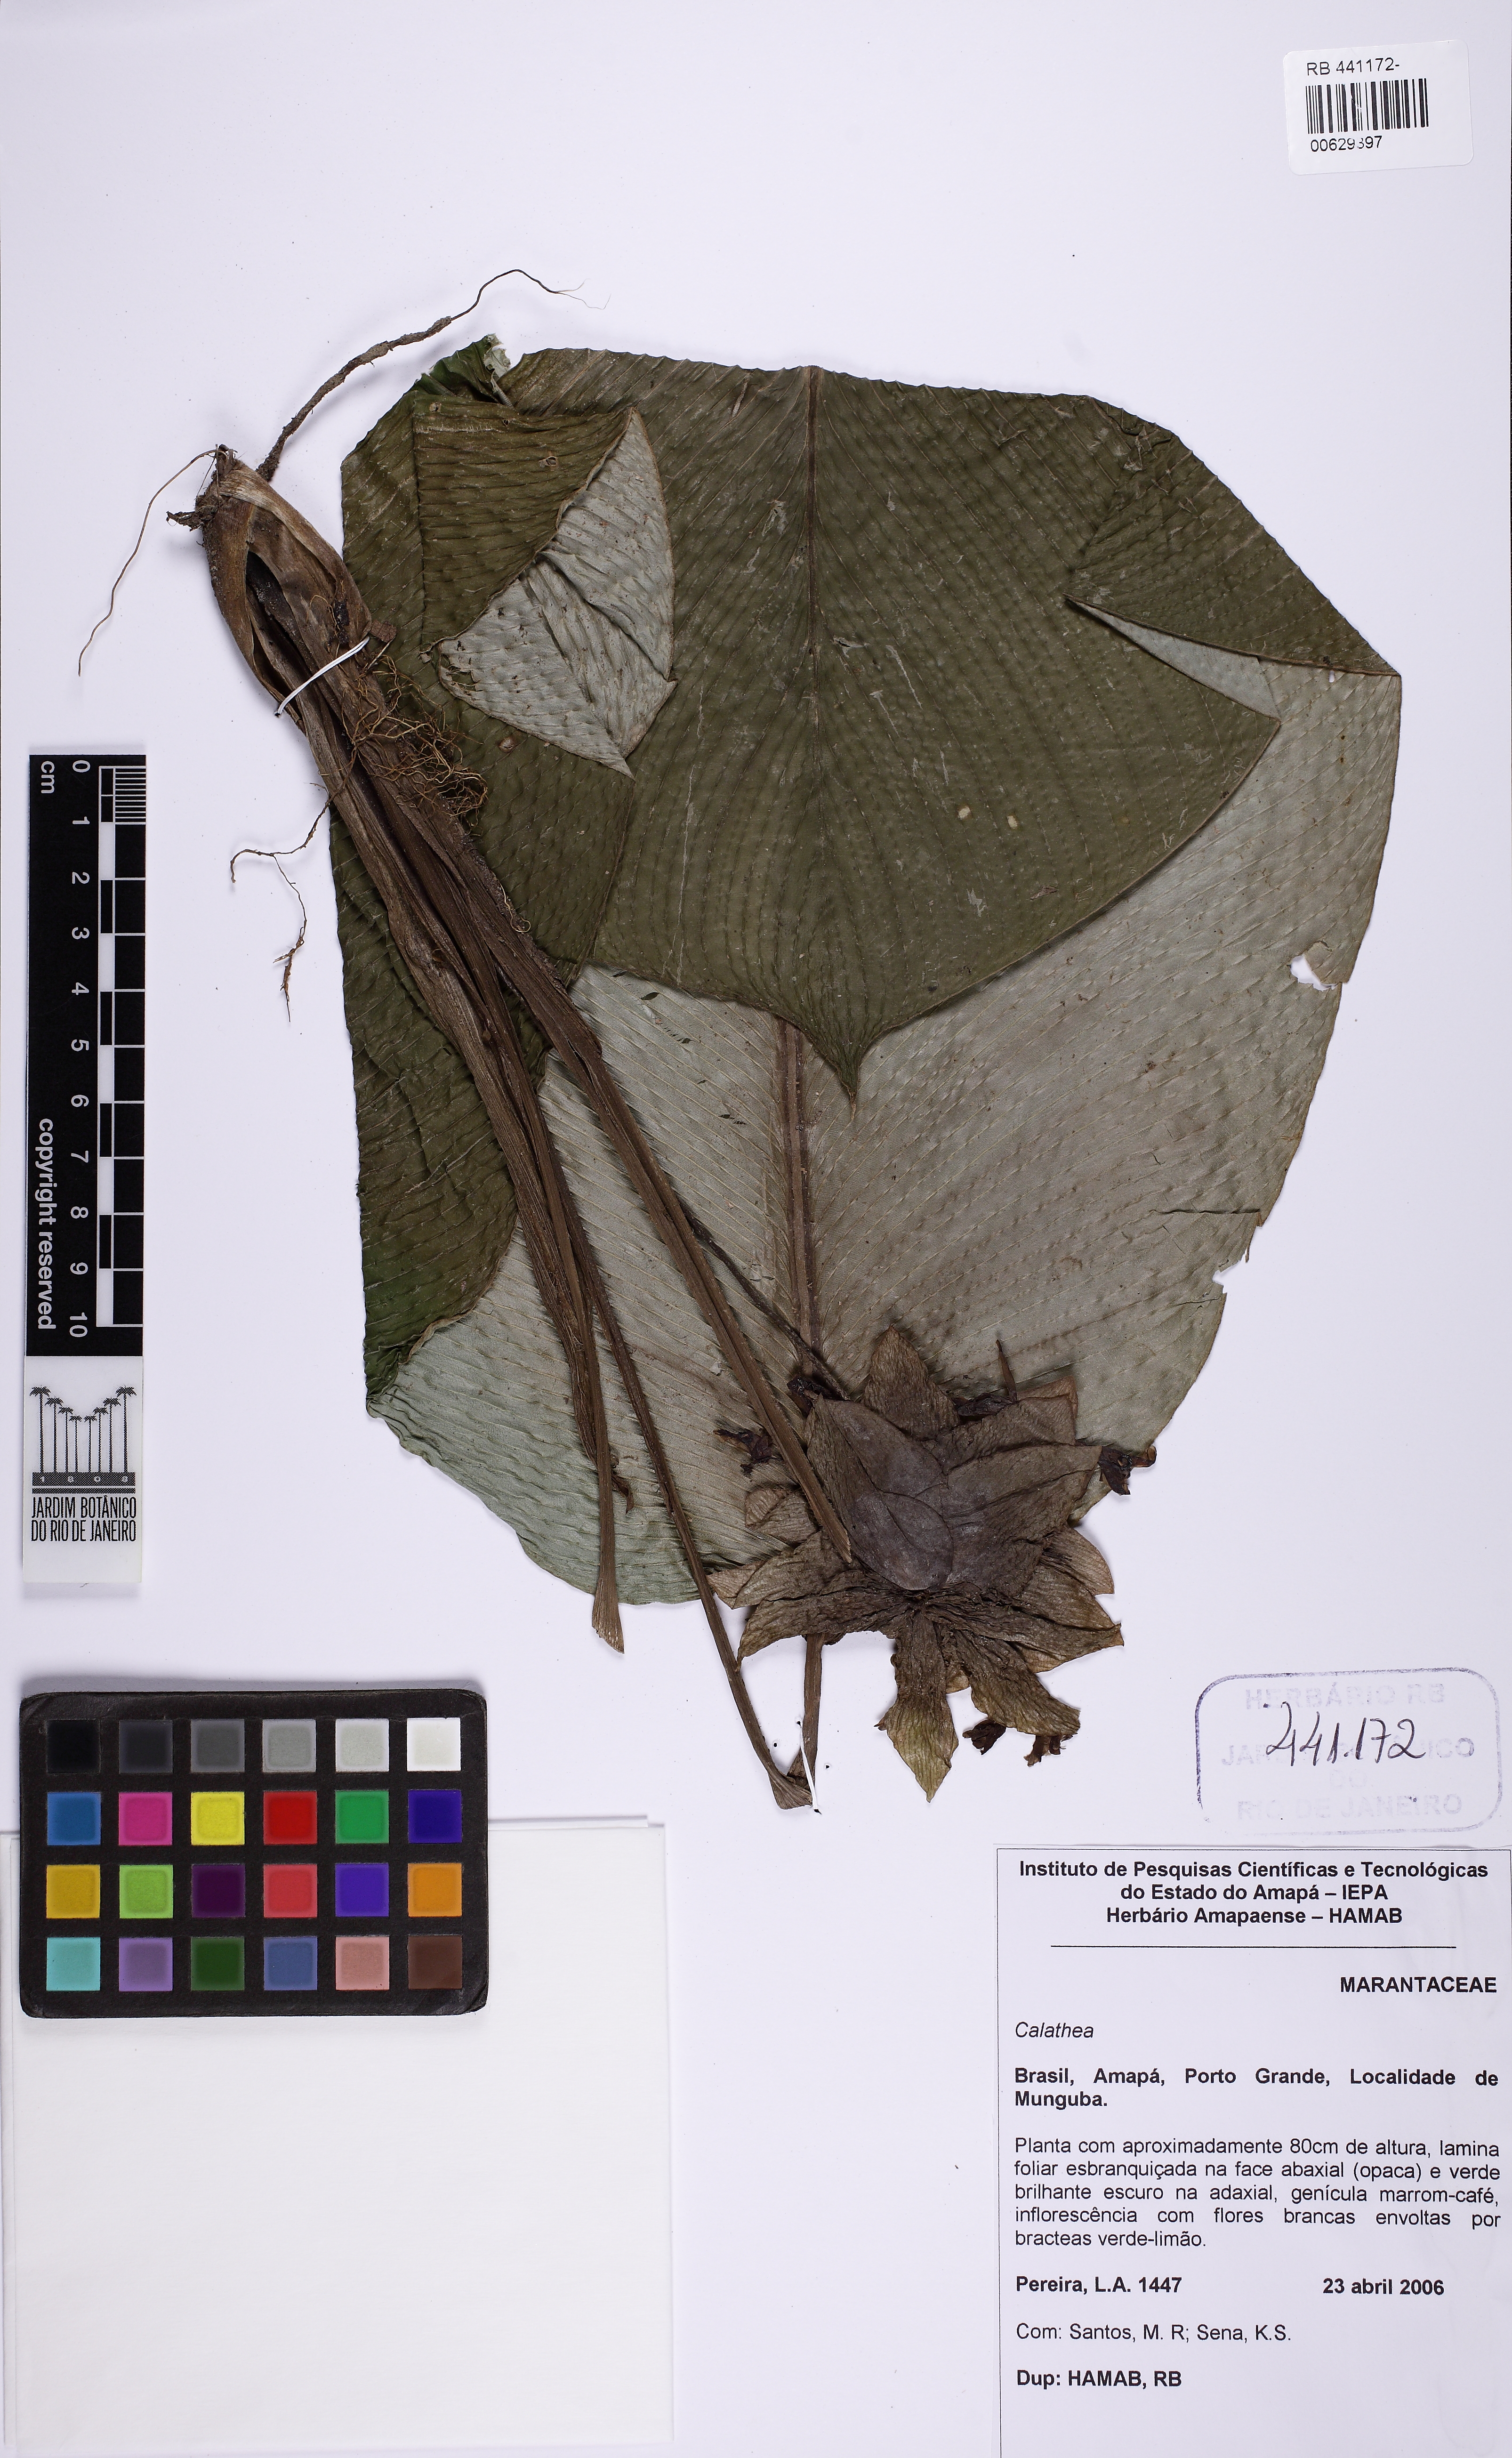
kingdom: Plantae
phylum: Tracheophyta
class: Liliopsida
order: Zingiberales
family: Marantaceae
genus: Calathea
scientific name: Calathea
